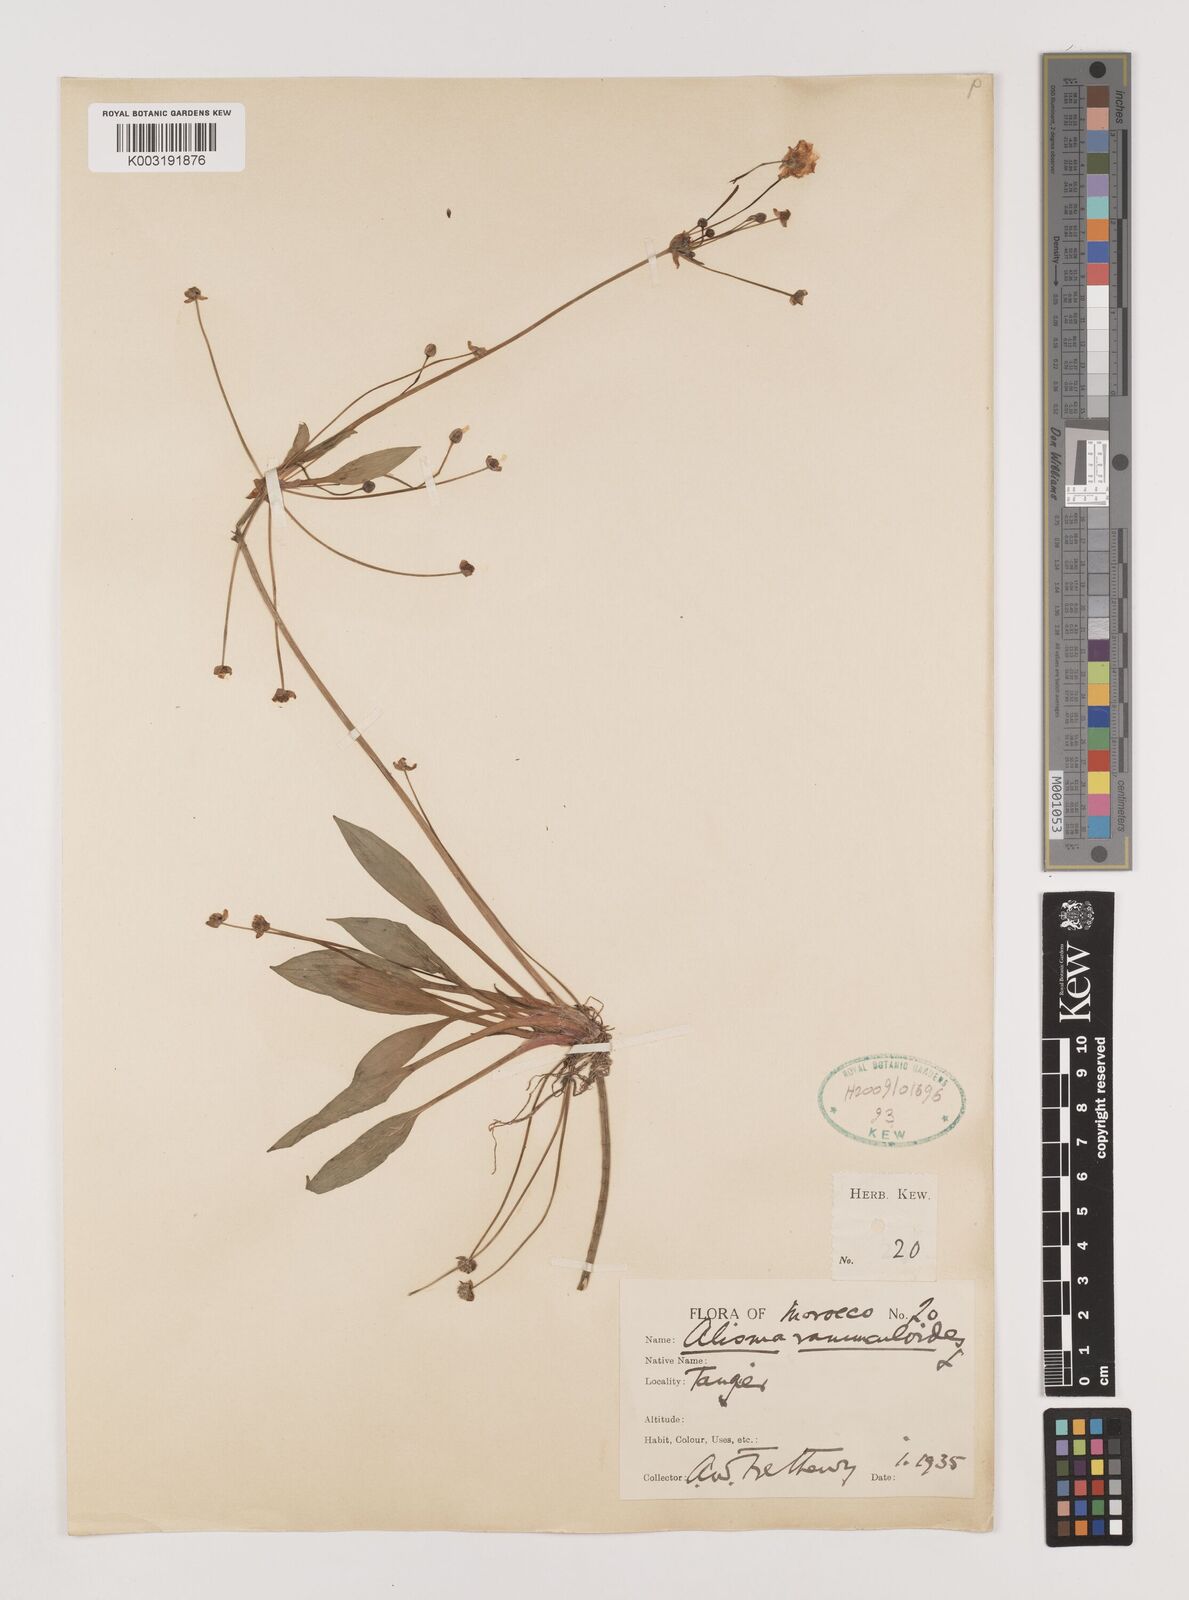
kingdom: Plantae
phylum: Tracheophyta
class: Liliopsida
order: Alismatales
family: Alismataceae
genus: Baldellia
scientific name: Baldellia ranunculoides
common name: Lesser water-plantain
